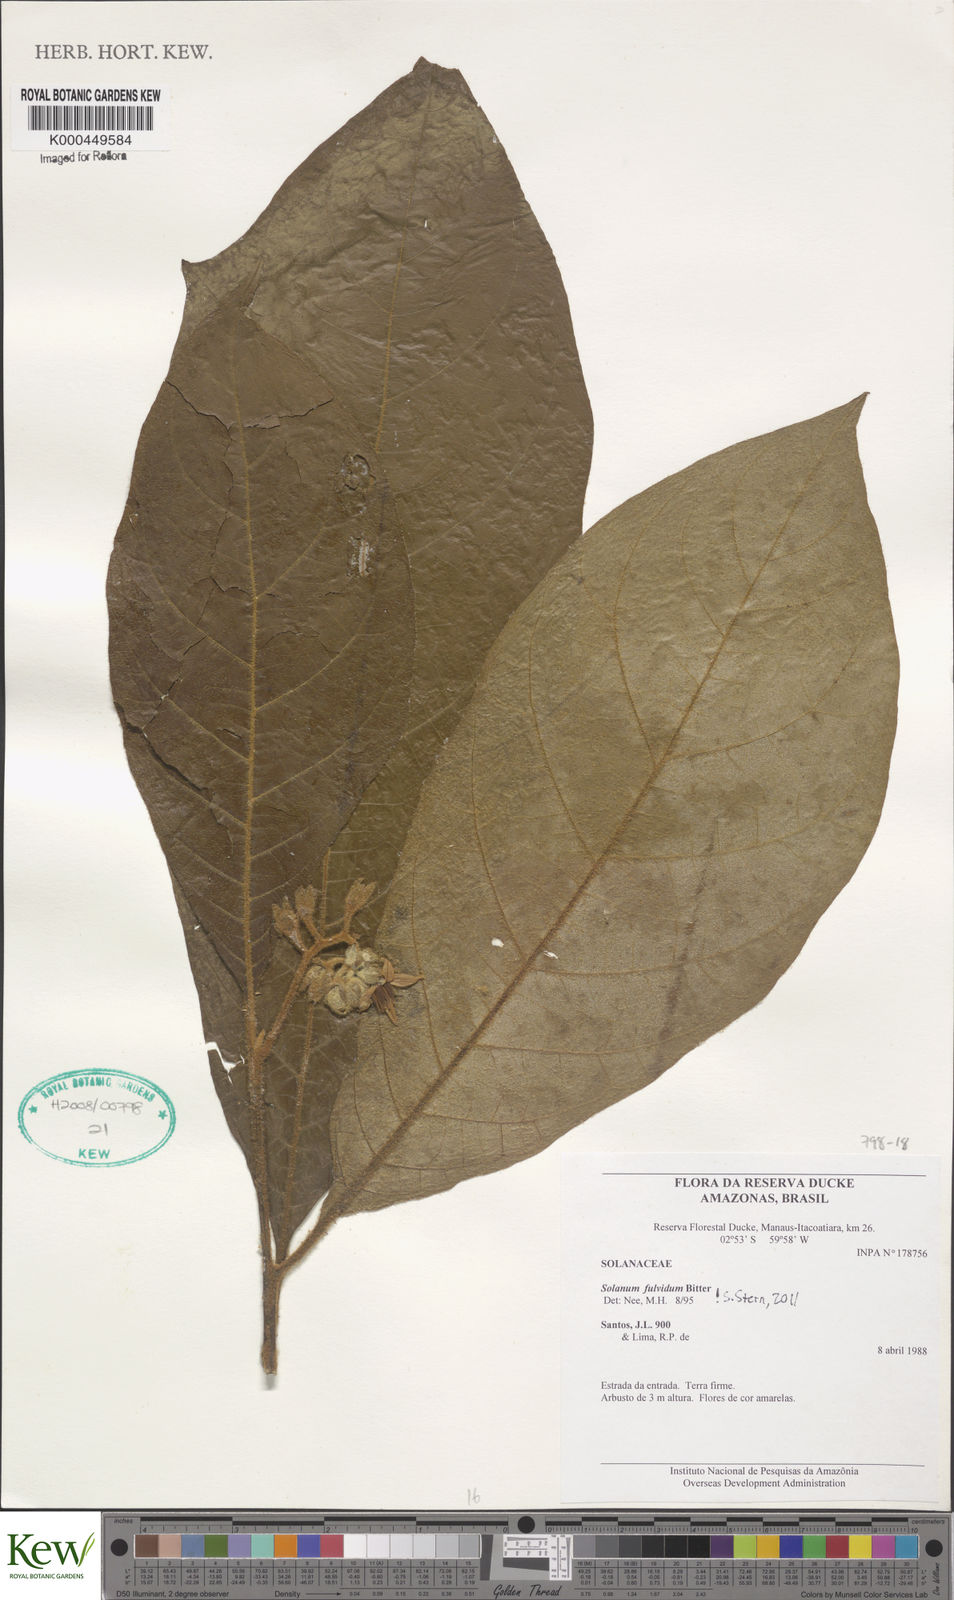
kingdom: Plantae
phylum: Tracheophyta
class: Magnoliopsida
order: Solanales
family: Solanaceae
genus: Solanum
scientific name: Solanum fulvidum
